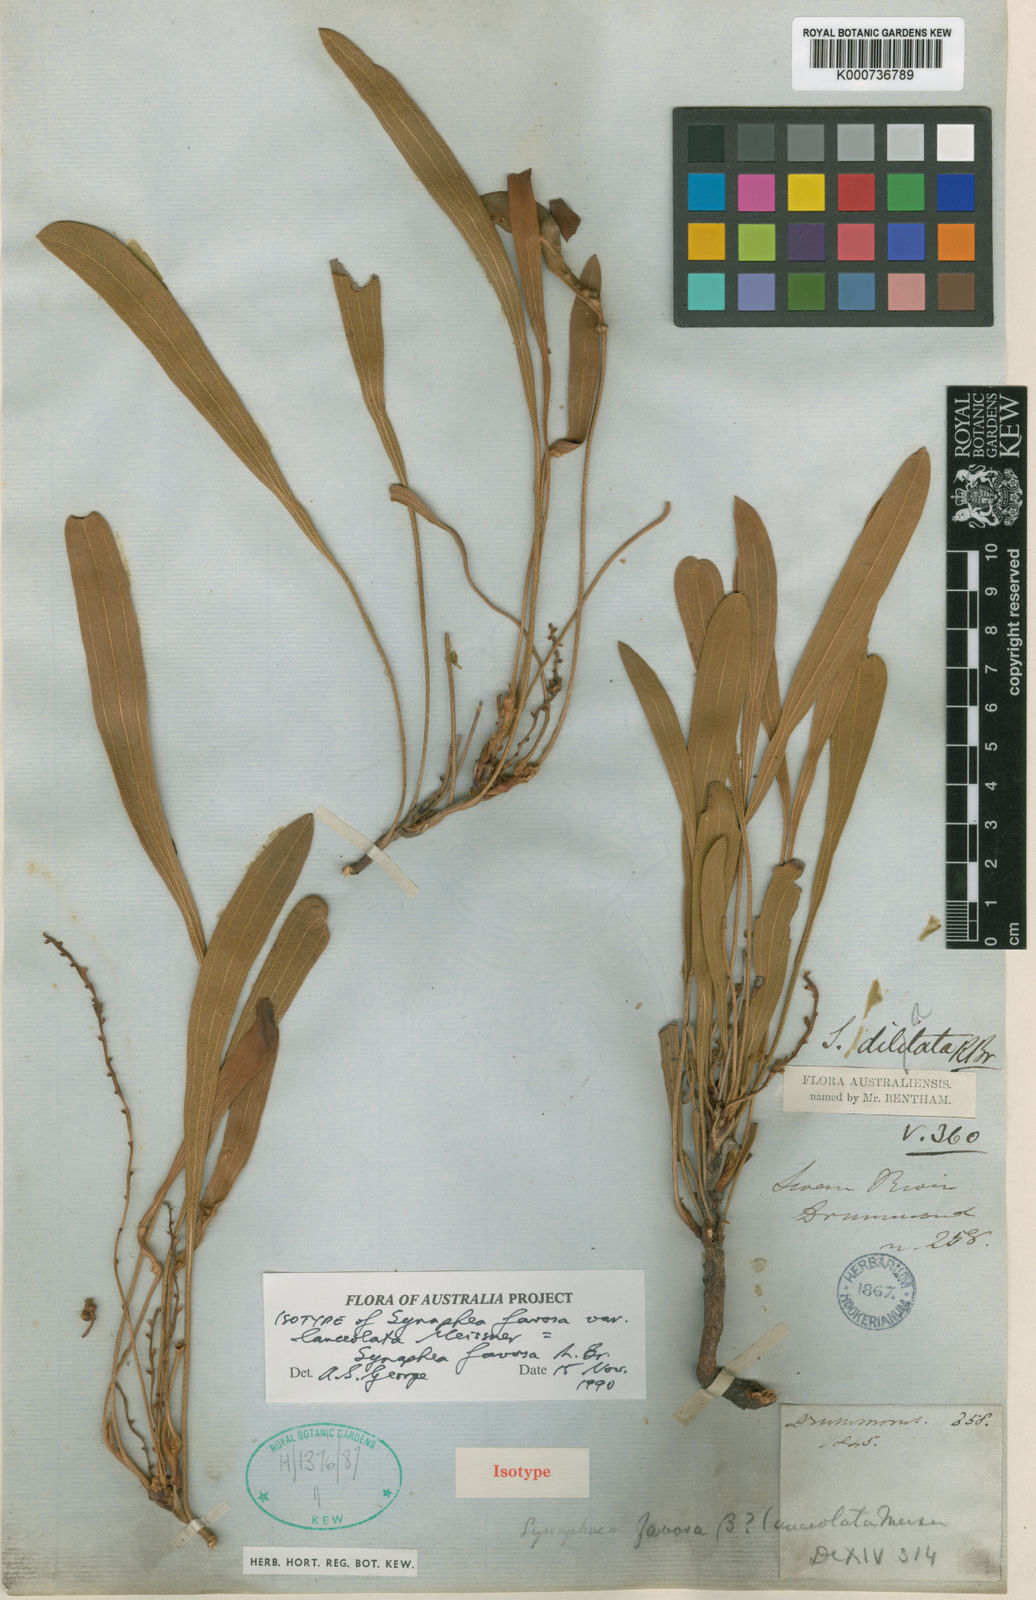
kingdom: Plantae
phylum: Tracheophyta
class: Magnoliopsida
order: Proteales
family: Proteaceae
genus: Synaphea
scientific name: Synaphea
